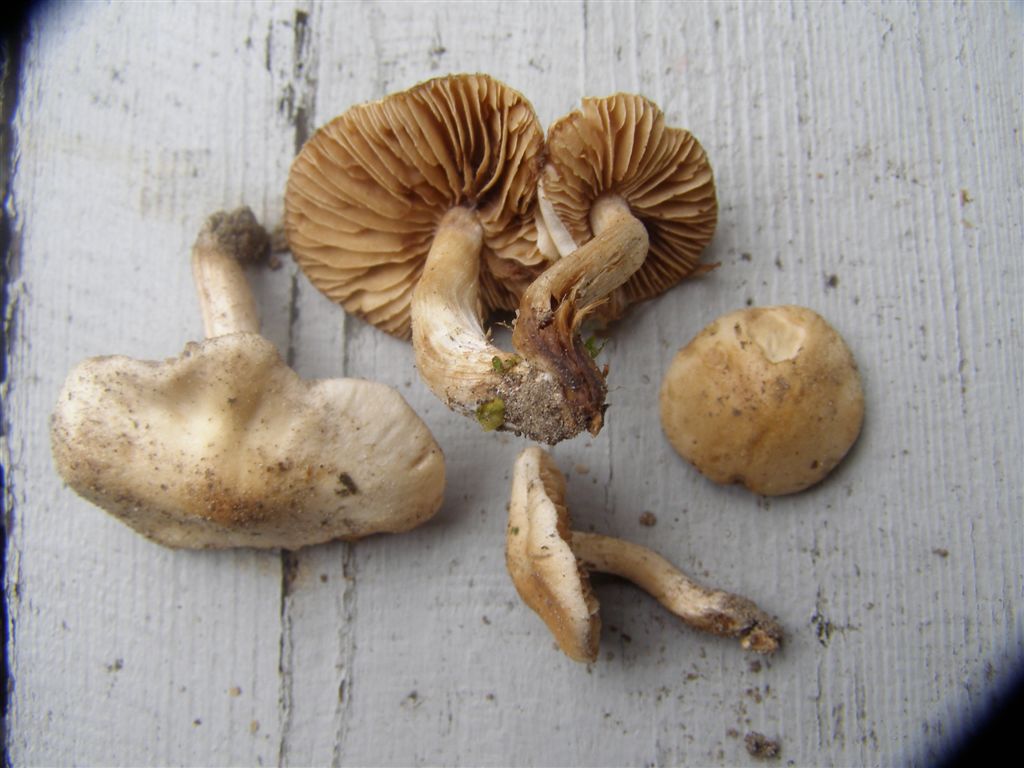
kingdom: Fungi
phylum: Basidiomycota
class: Agaricomycetes
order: Agaricales
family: Hymenogastraceae
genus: Hebeloma
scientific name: Hebeloma sacchariolens
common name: sødtduftende tåreblad
